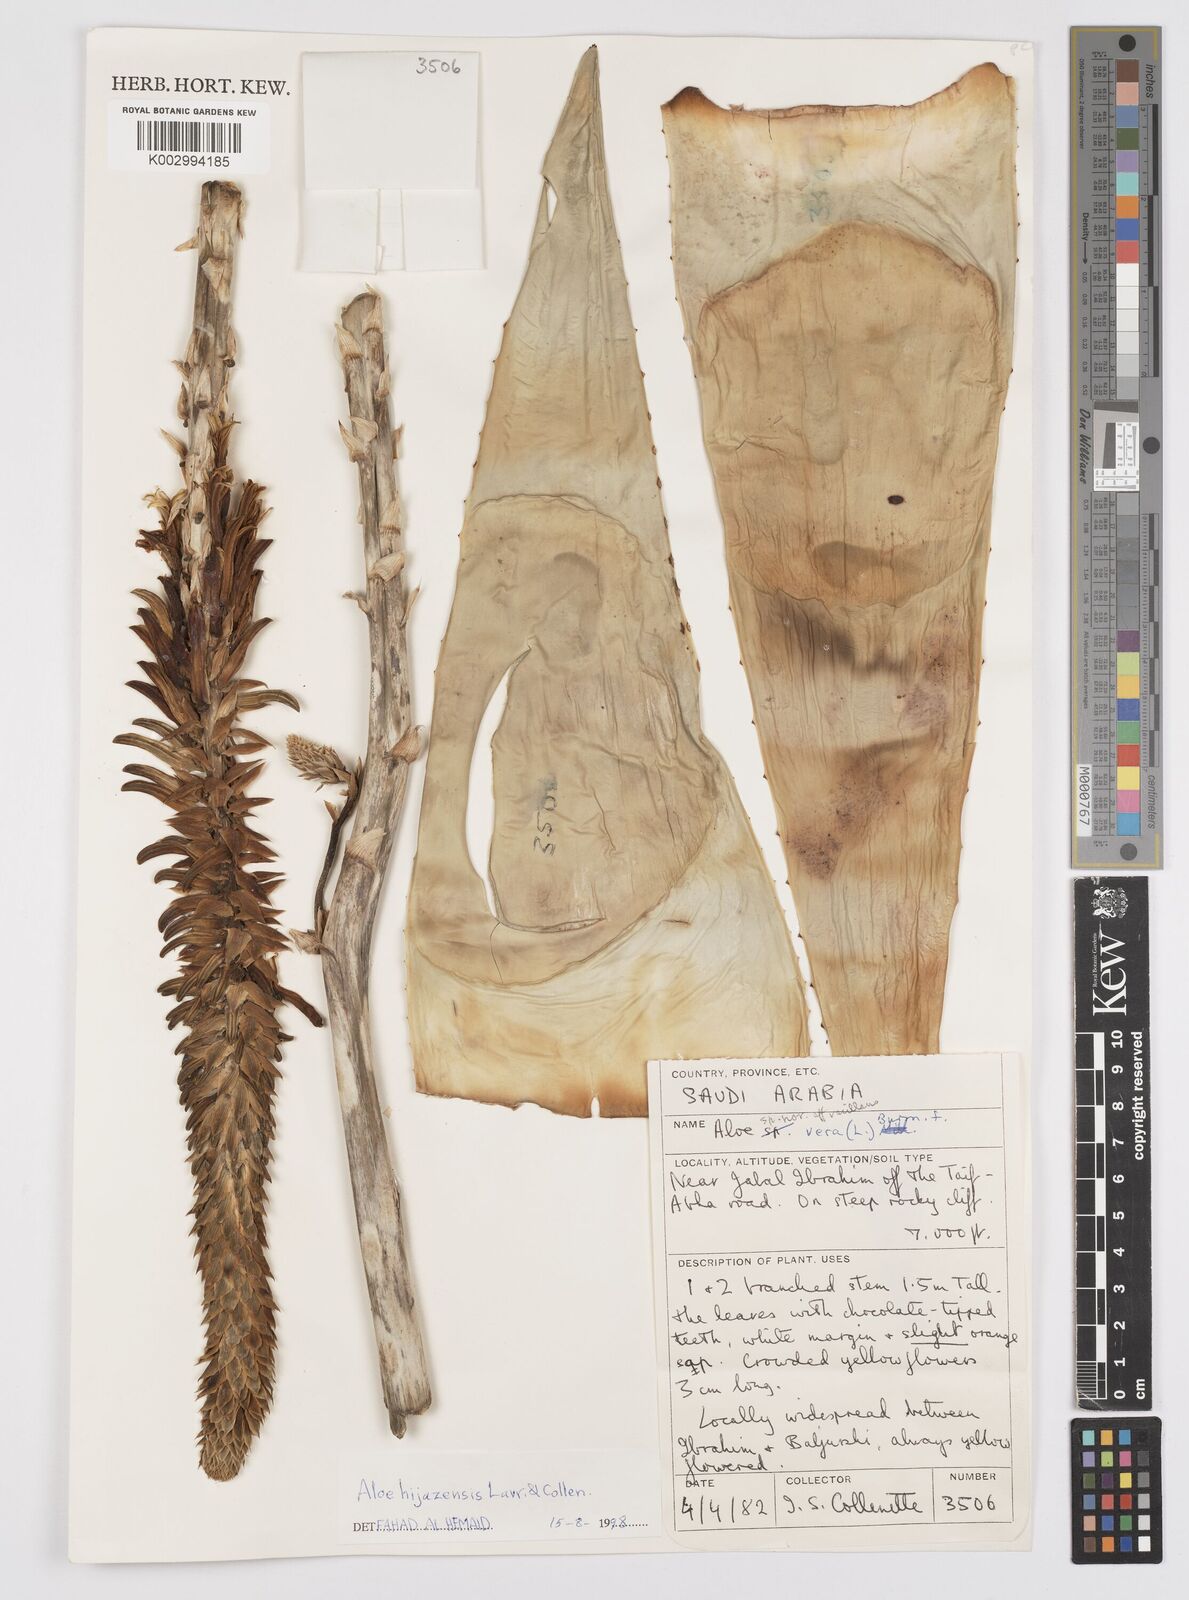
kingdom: Plantae
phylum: Tracheophyta
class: Liliopsida
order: Asparagales
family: Asphodelaceae
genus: Aloe
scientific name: Aloe castellorum
